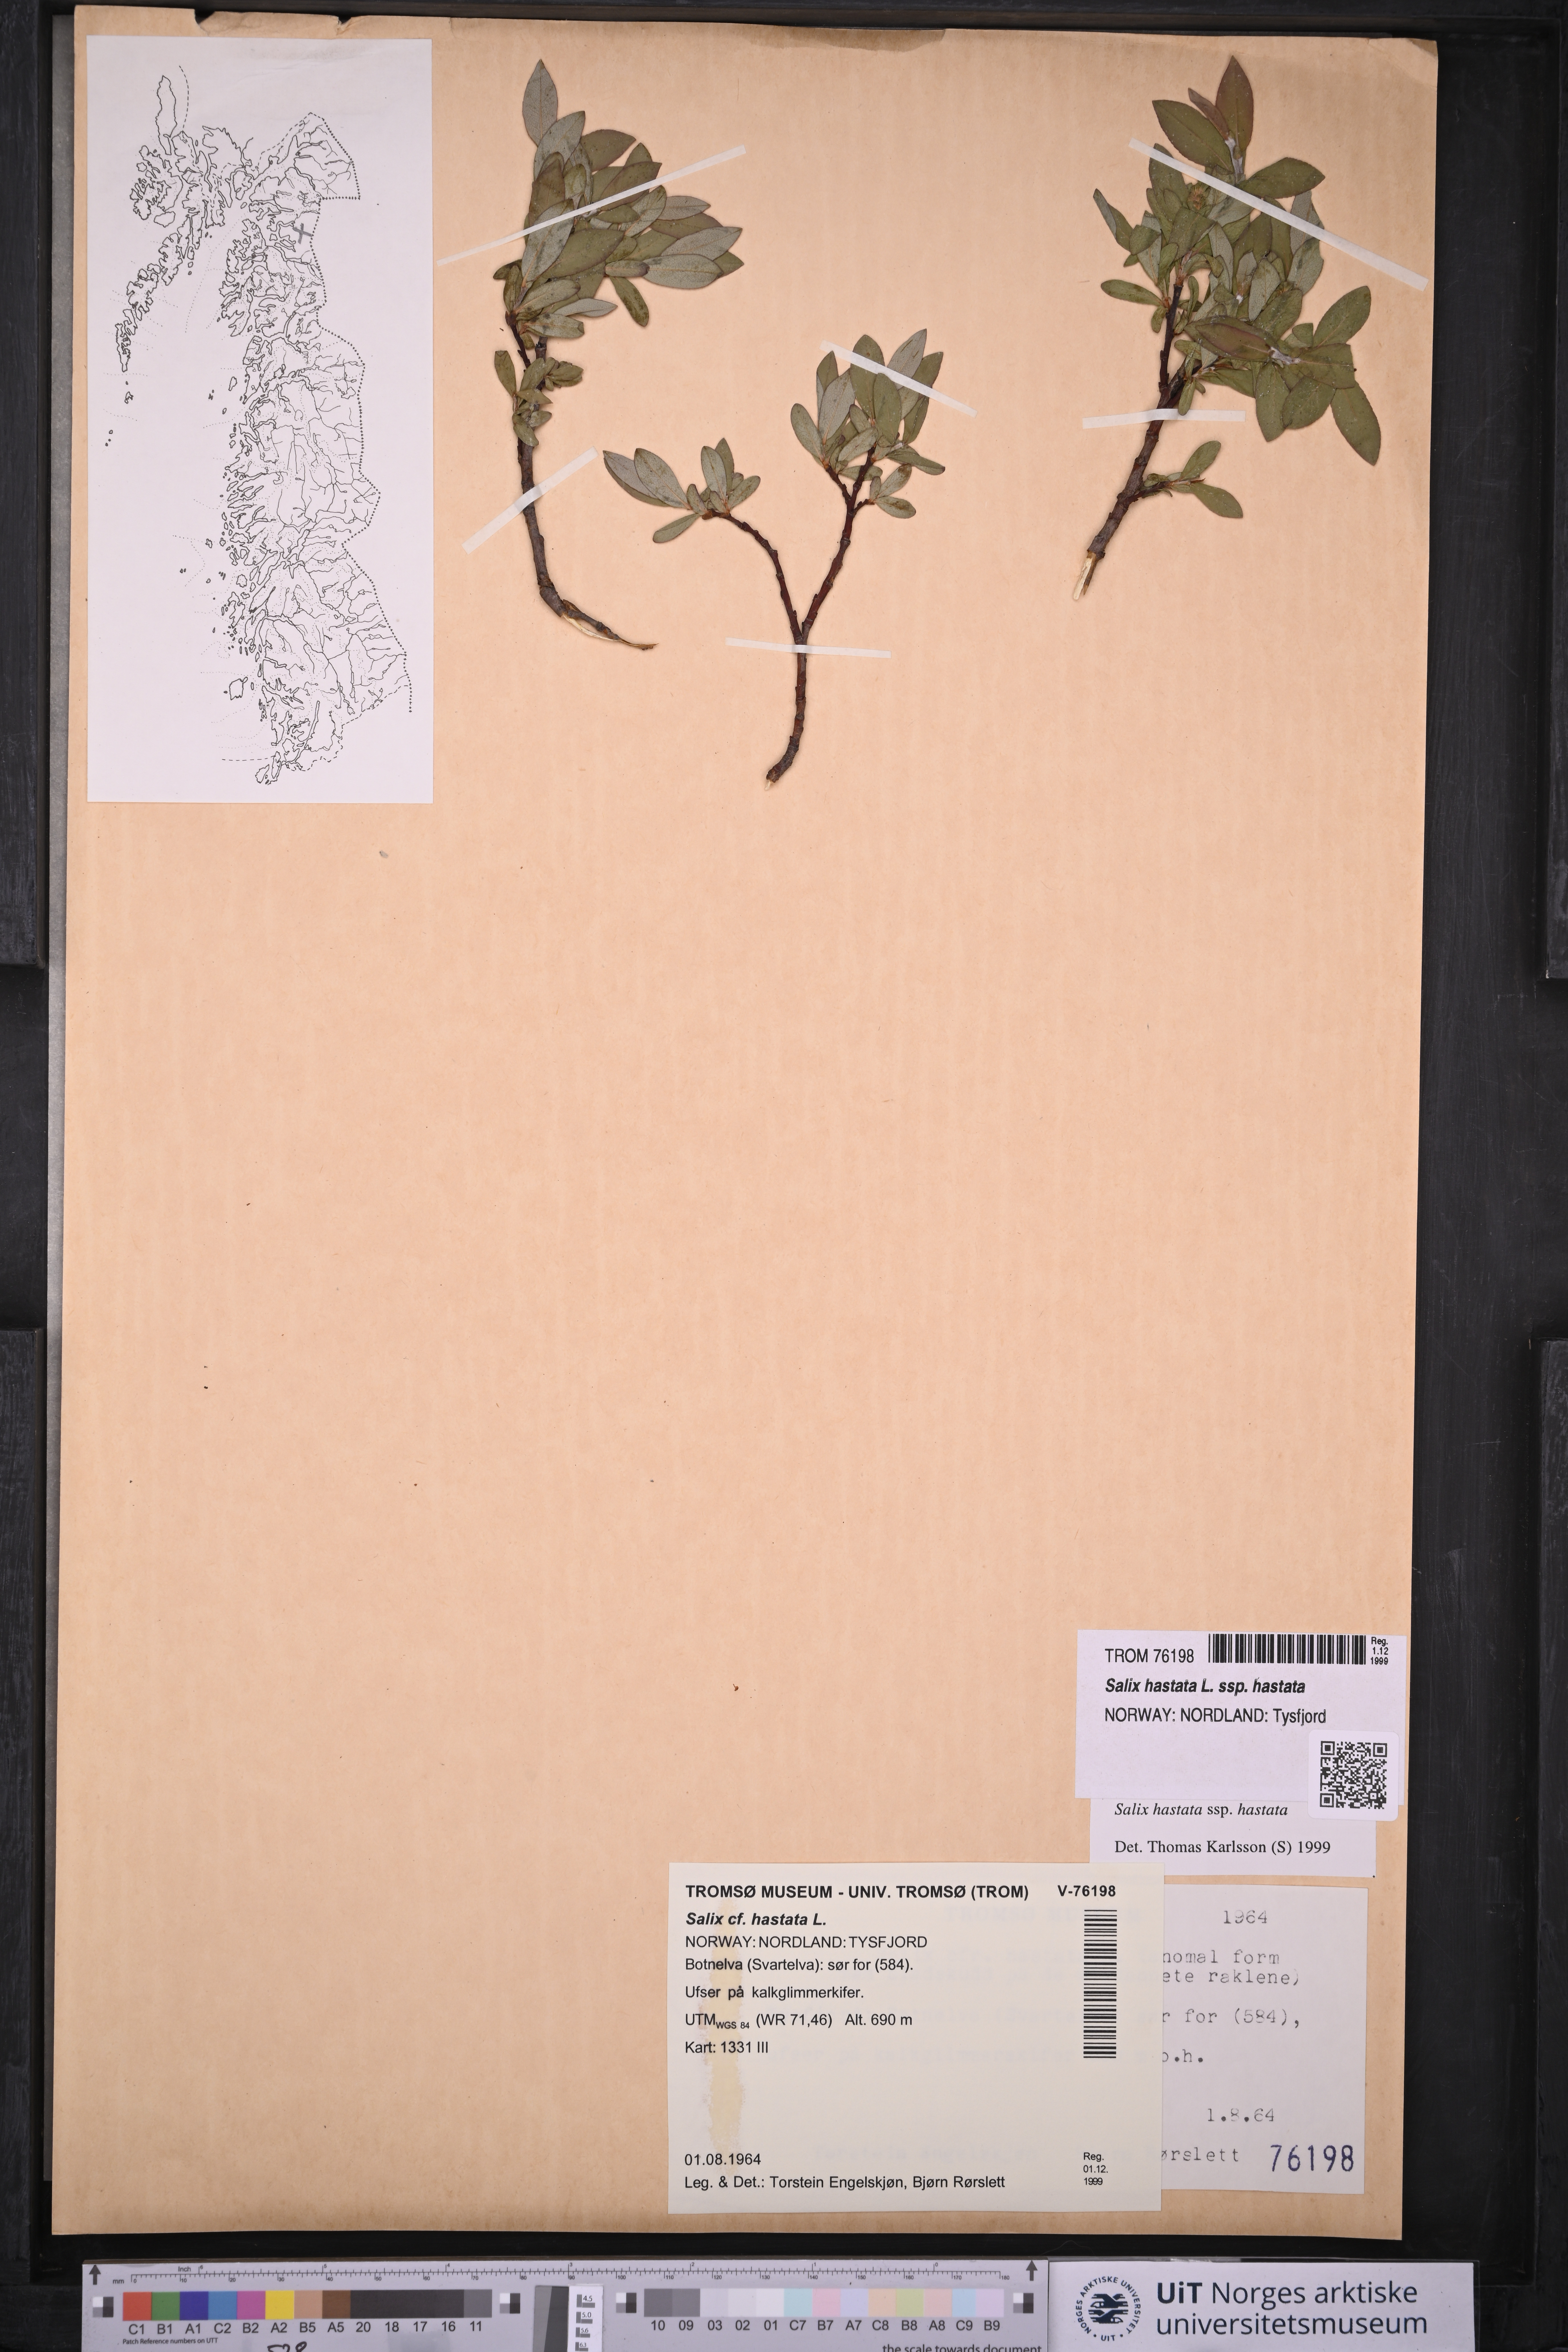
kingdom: Plantae
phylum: Tracheophyta
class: Magnoliopsida
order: Malpighiales
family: Salicaceae
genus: Salix
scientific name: Salix hastata
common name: Halberd willow
